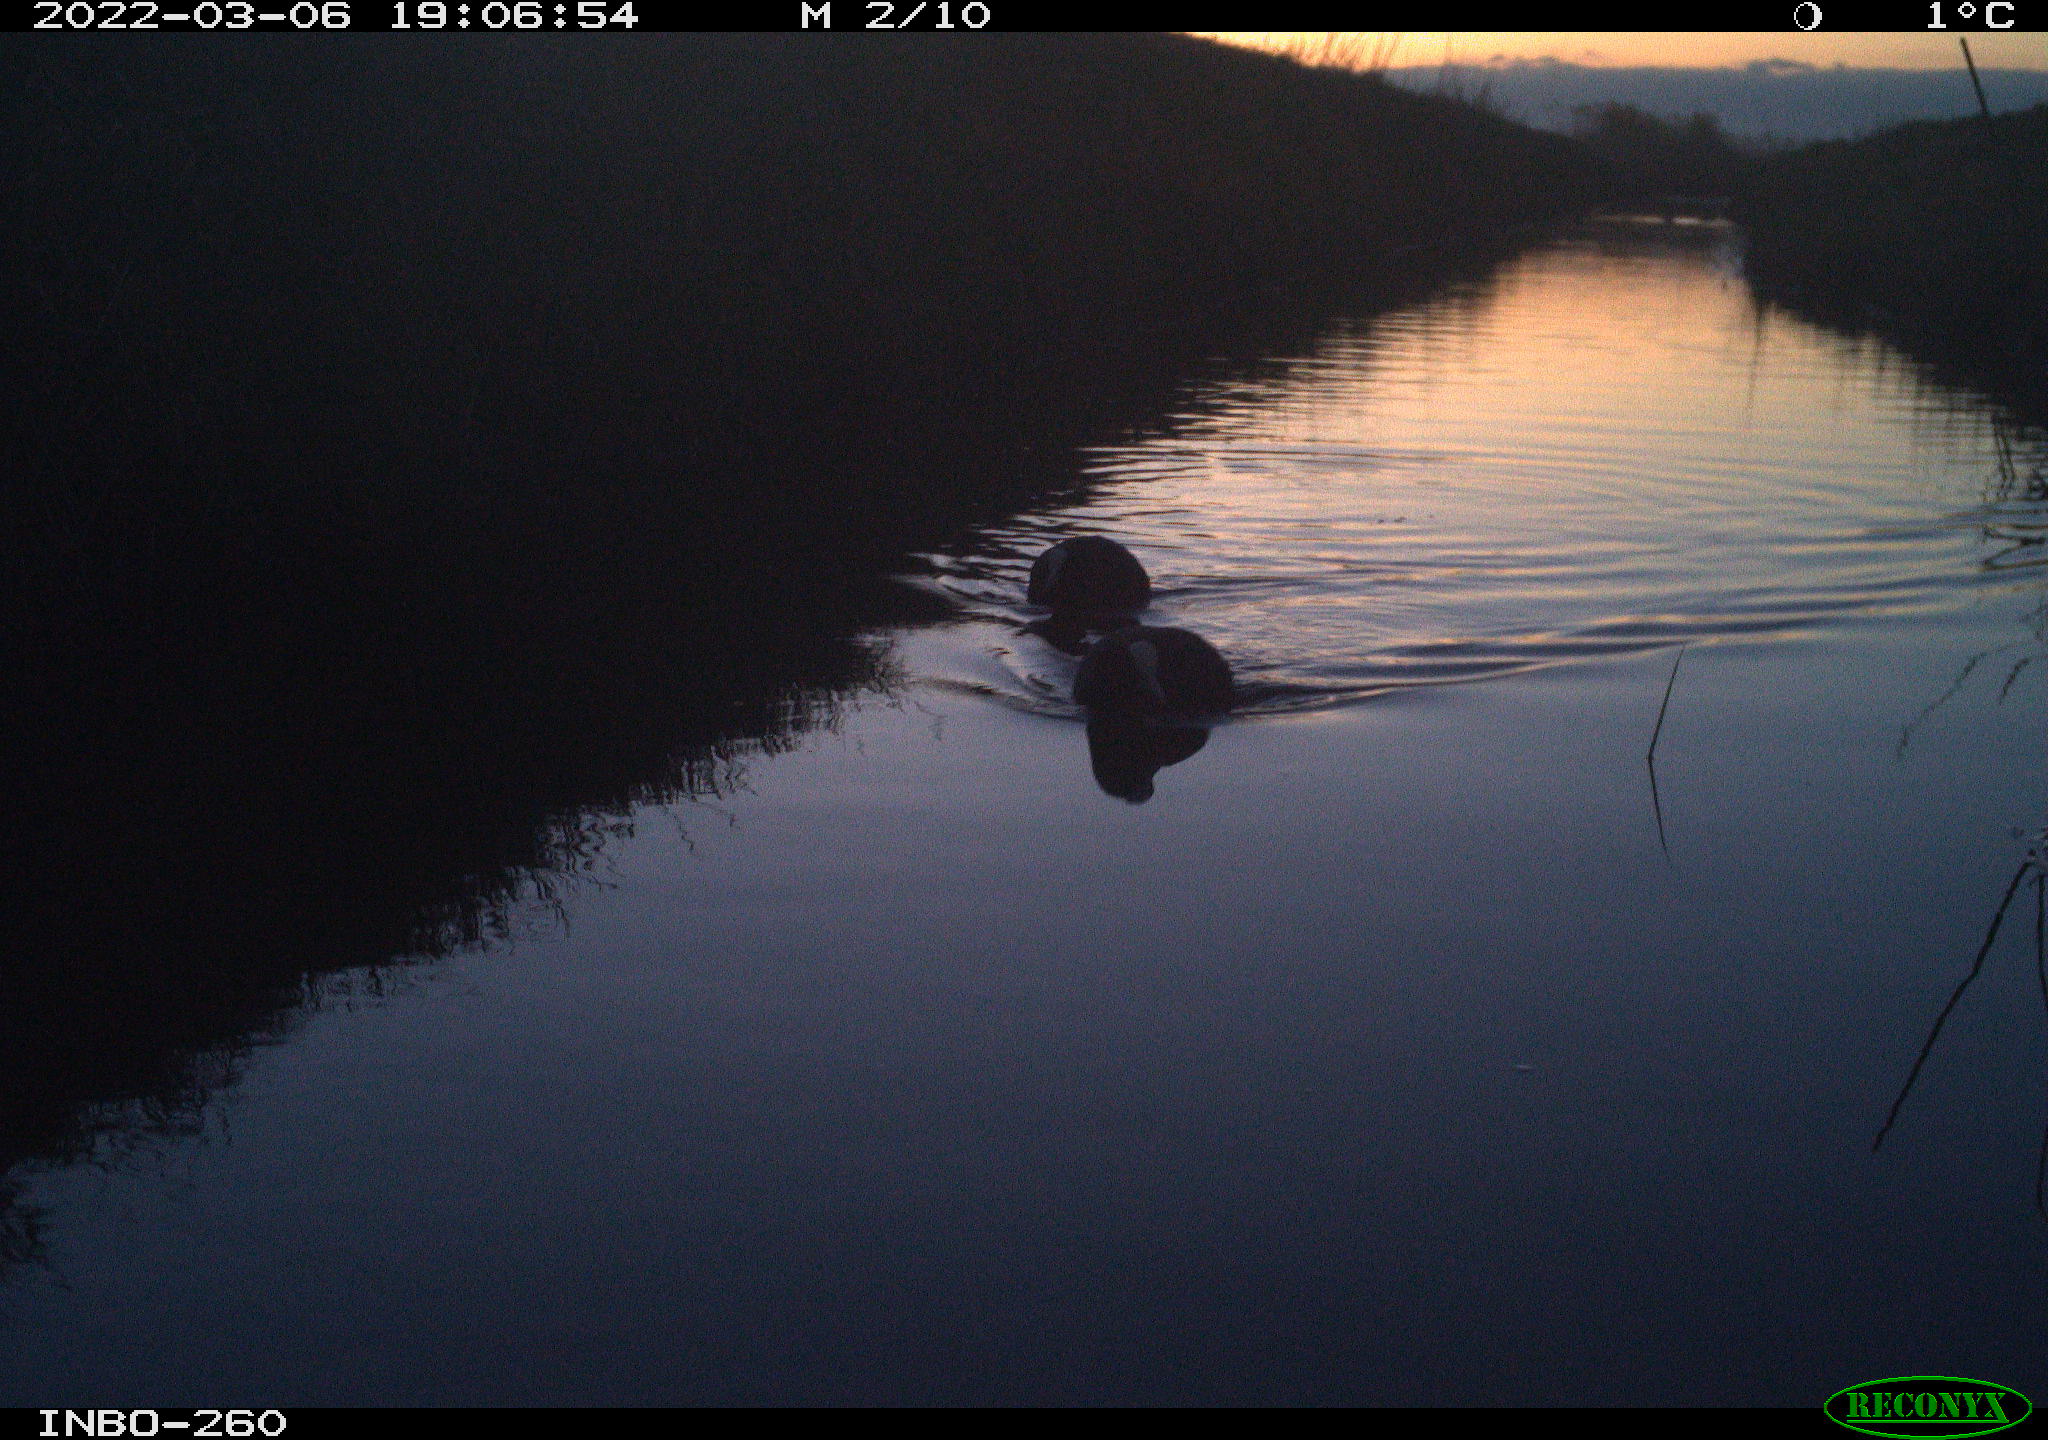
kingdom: Animalia
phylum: Chordata
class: Aves
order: Gruiformes
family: Rallidae
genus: Fulica
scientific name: Fulica atra
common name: Eurasian coot
